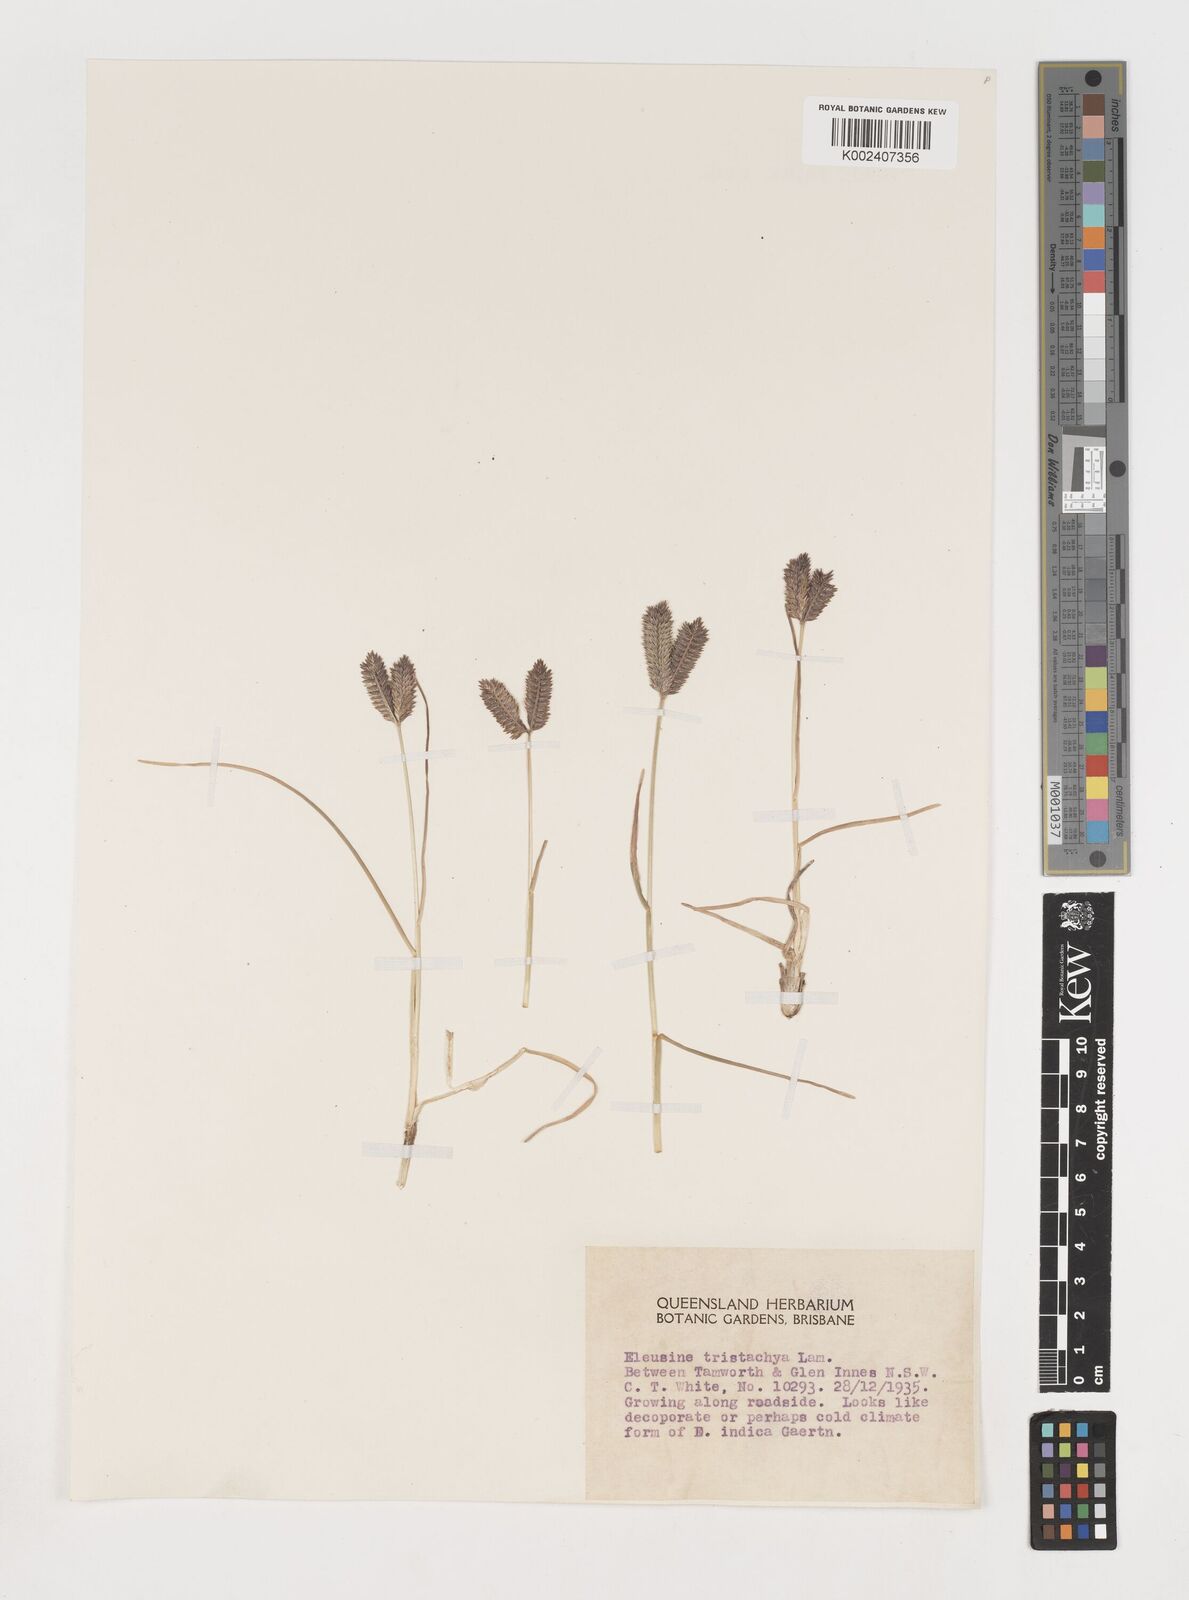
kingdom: Plantae
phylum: Tracheophyta
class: Liliopsida
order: Poales
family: Poaceae
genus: Eleusine
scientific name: Eleusine tristachya
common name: American yard-grass
